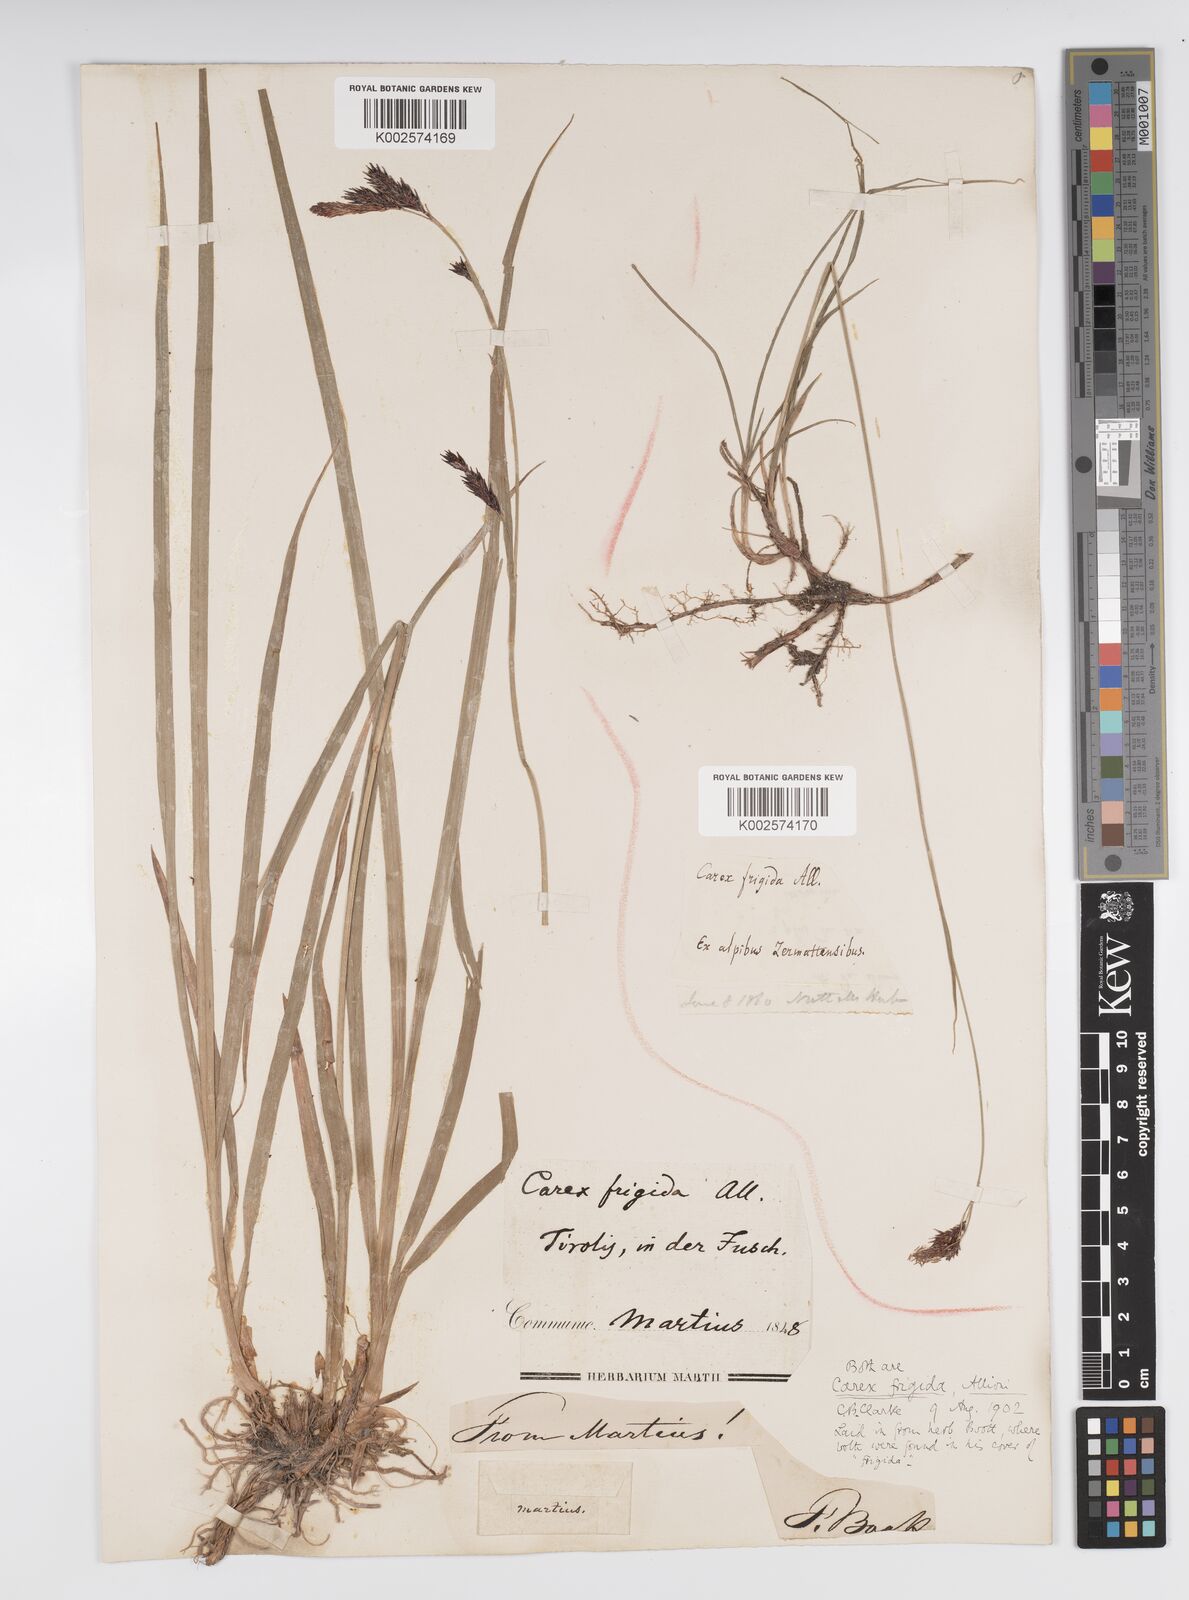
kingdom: Plantae
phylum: Tracheophyta
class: Liliopsida
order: Poales
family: Cyperaceae
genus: Carex
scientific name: Carex frigida
